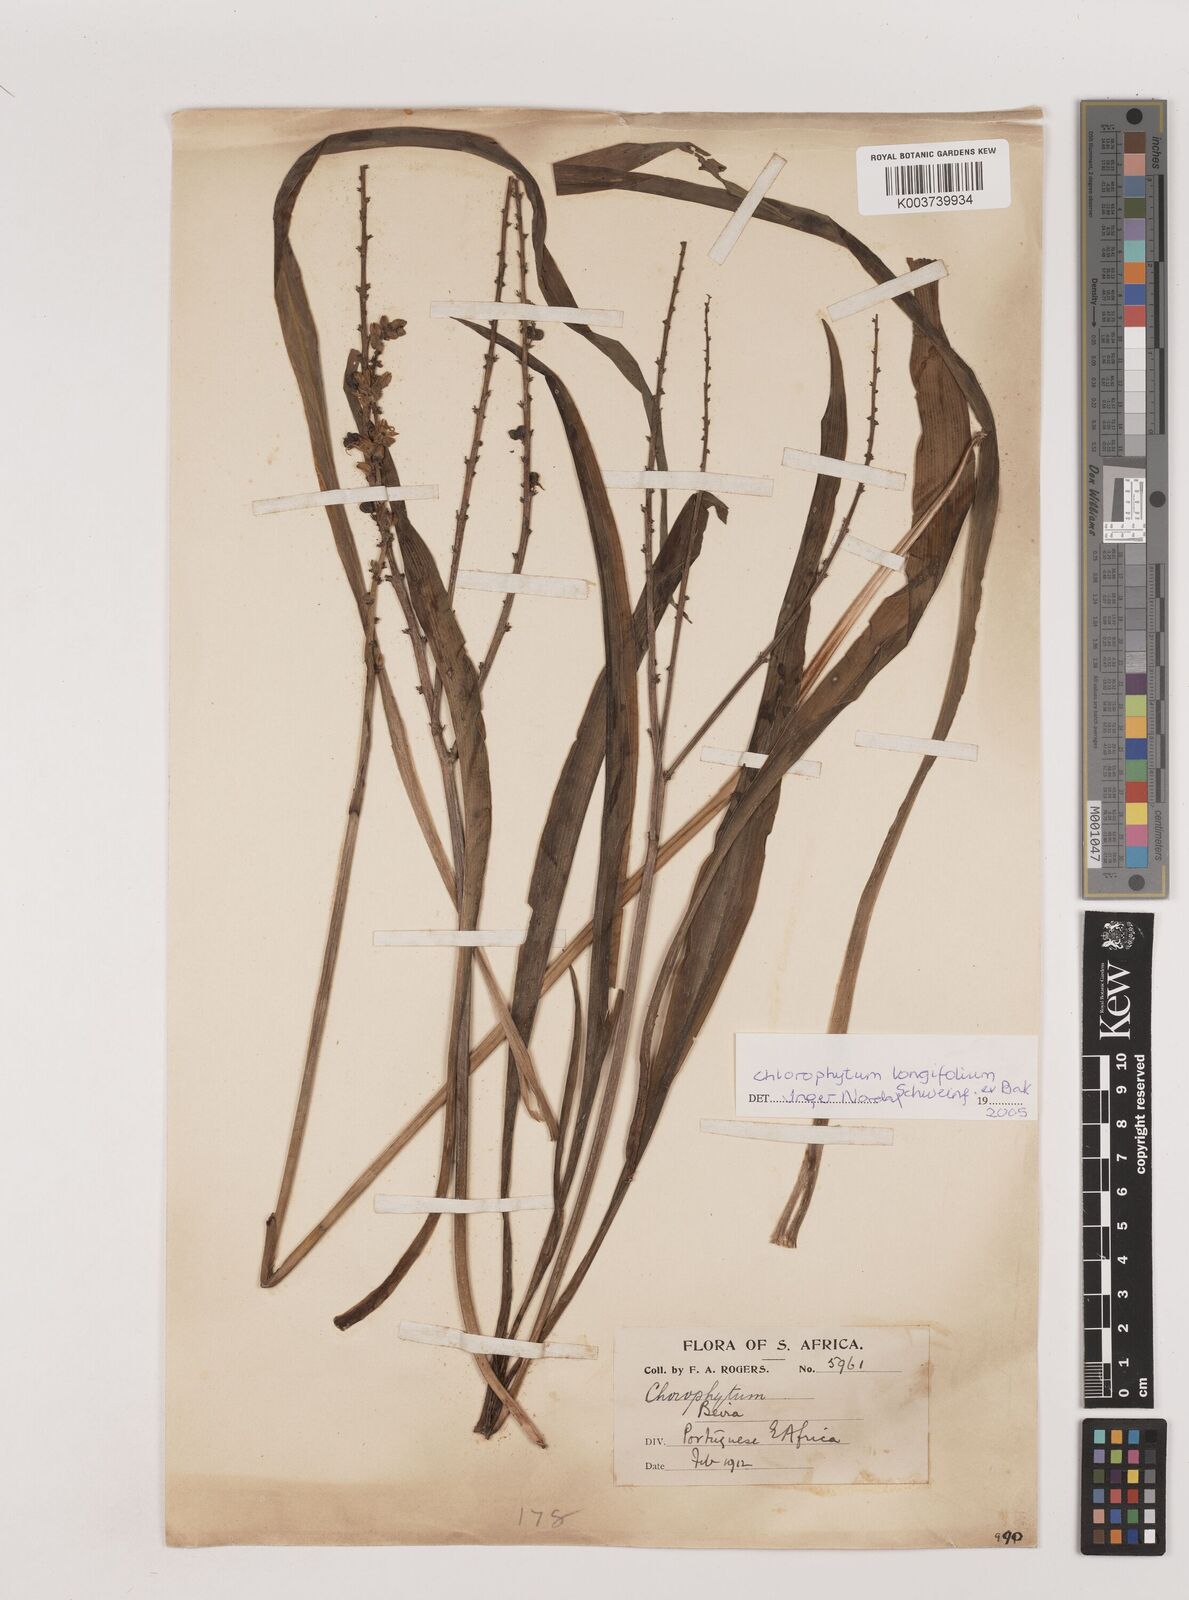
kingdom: Plantae
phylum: Tracheophyta
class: Liliopsida
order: Asparagales
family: Asparagaceae
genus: Chlorophytum
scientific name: Chlorophytum longifolium
